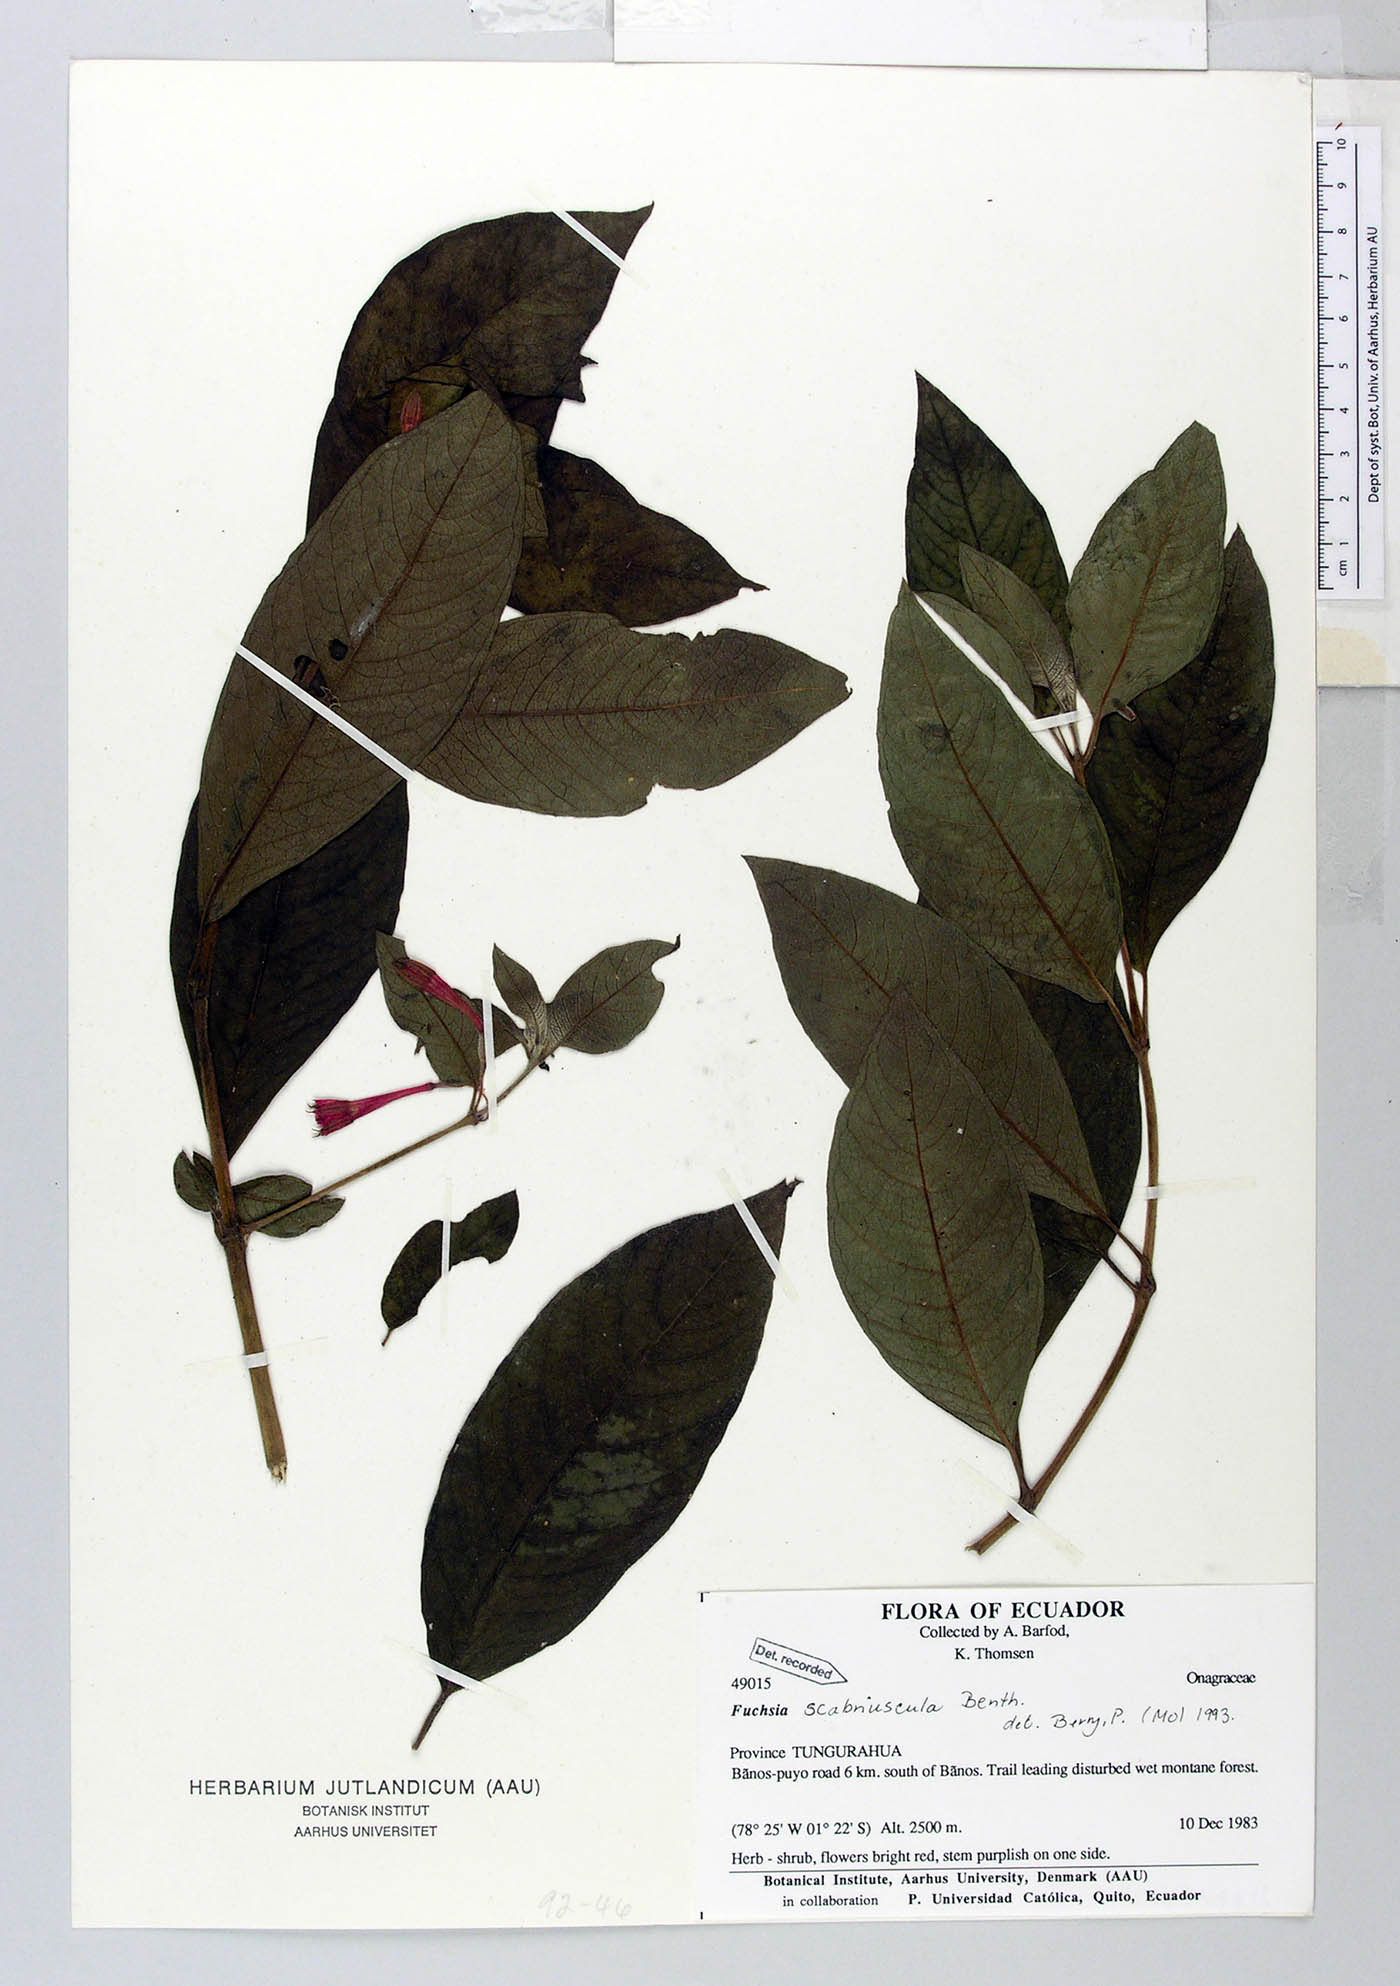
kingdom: Plantae
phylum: Tracheophyta
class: Magnoliopsida
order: Myrtales
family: Onagraceae
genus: Fuchsia
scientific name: Fuchsia scabriuscula
